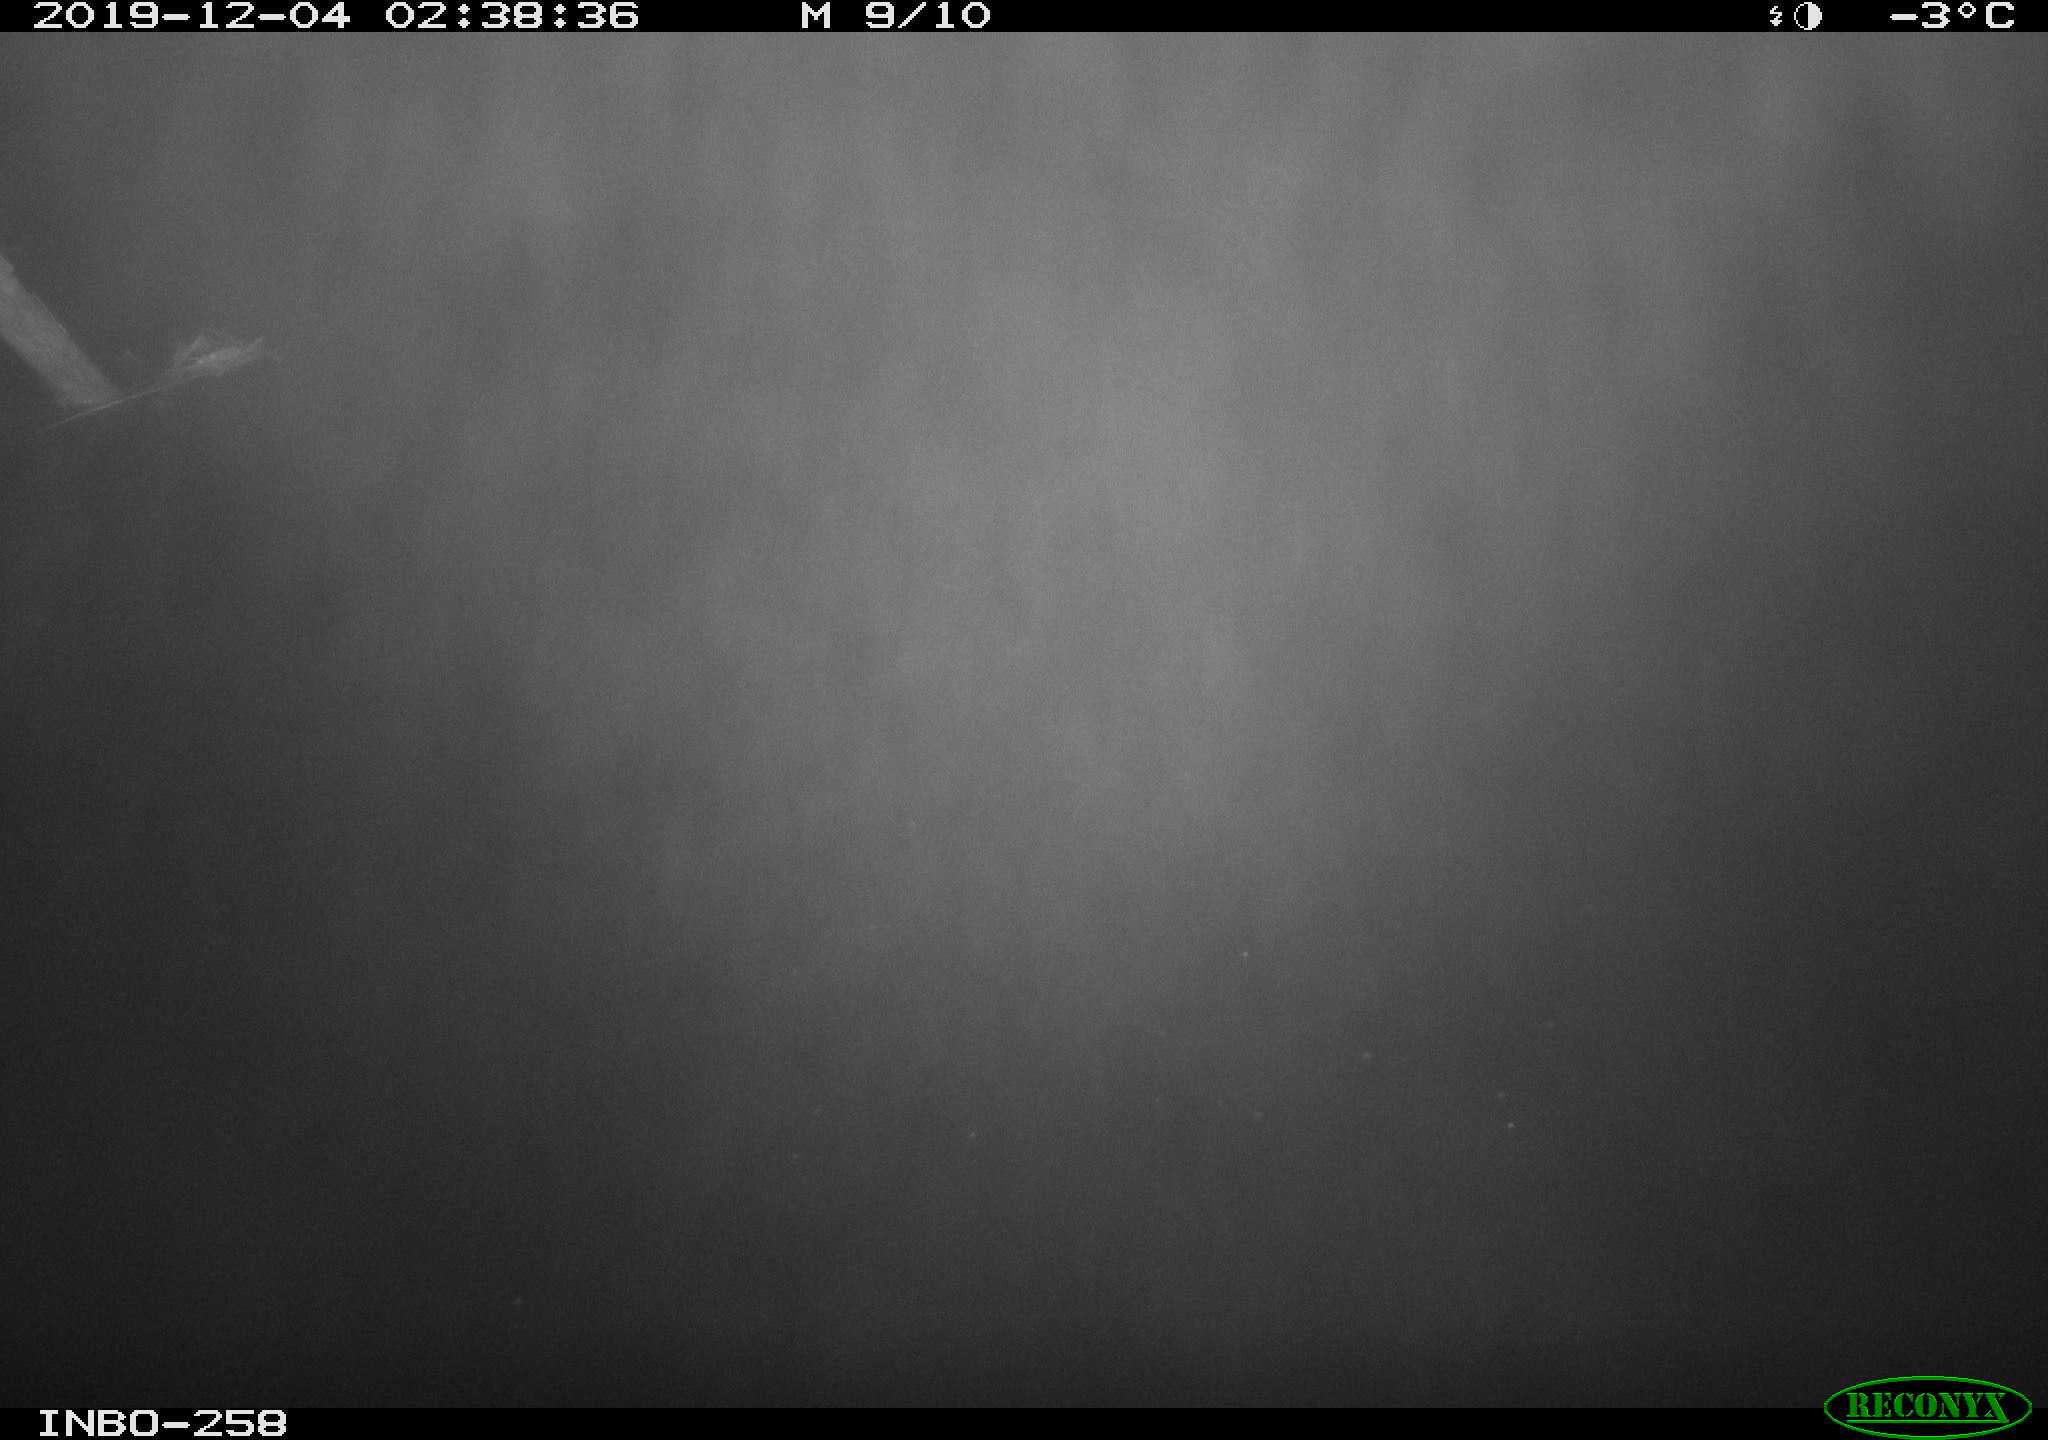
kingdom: Animalia
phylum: Chordata
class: Aves
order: Anseriformes
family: Anatidae
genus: Anas
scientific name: Anas platyrhynchos
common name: Mallard
